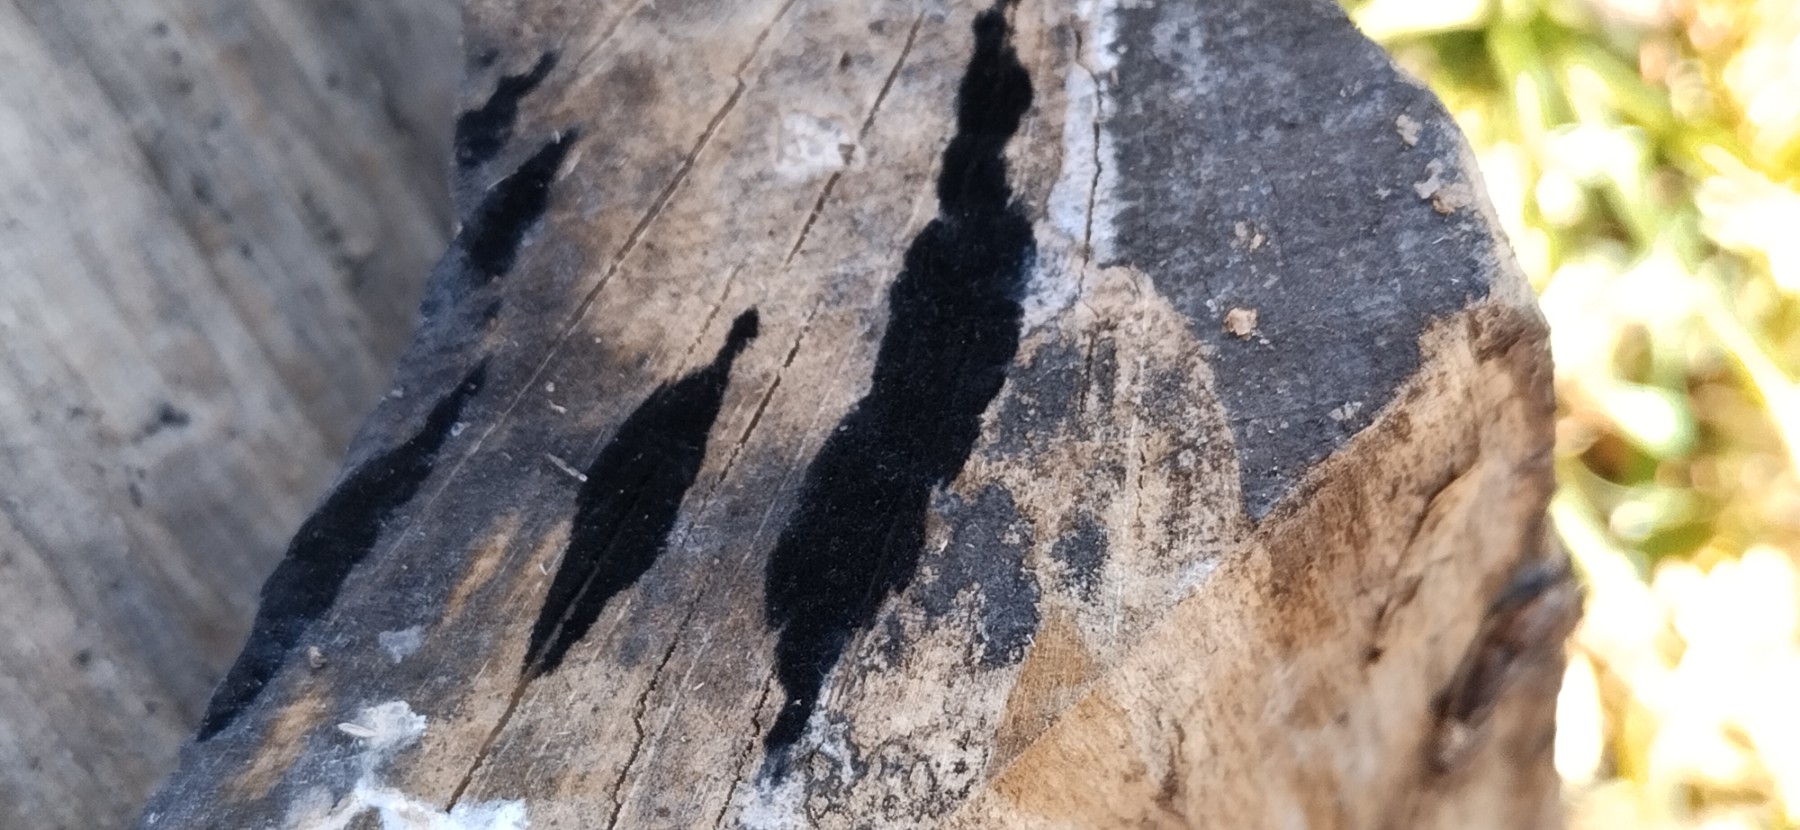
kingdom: Fungi
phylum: Ascomycota
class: Leotiomycetes
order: Helotiales
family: Helotiaceae
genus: Bispora
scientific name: Bispora pallescens
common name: måtte-snitskive
